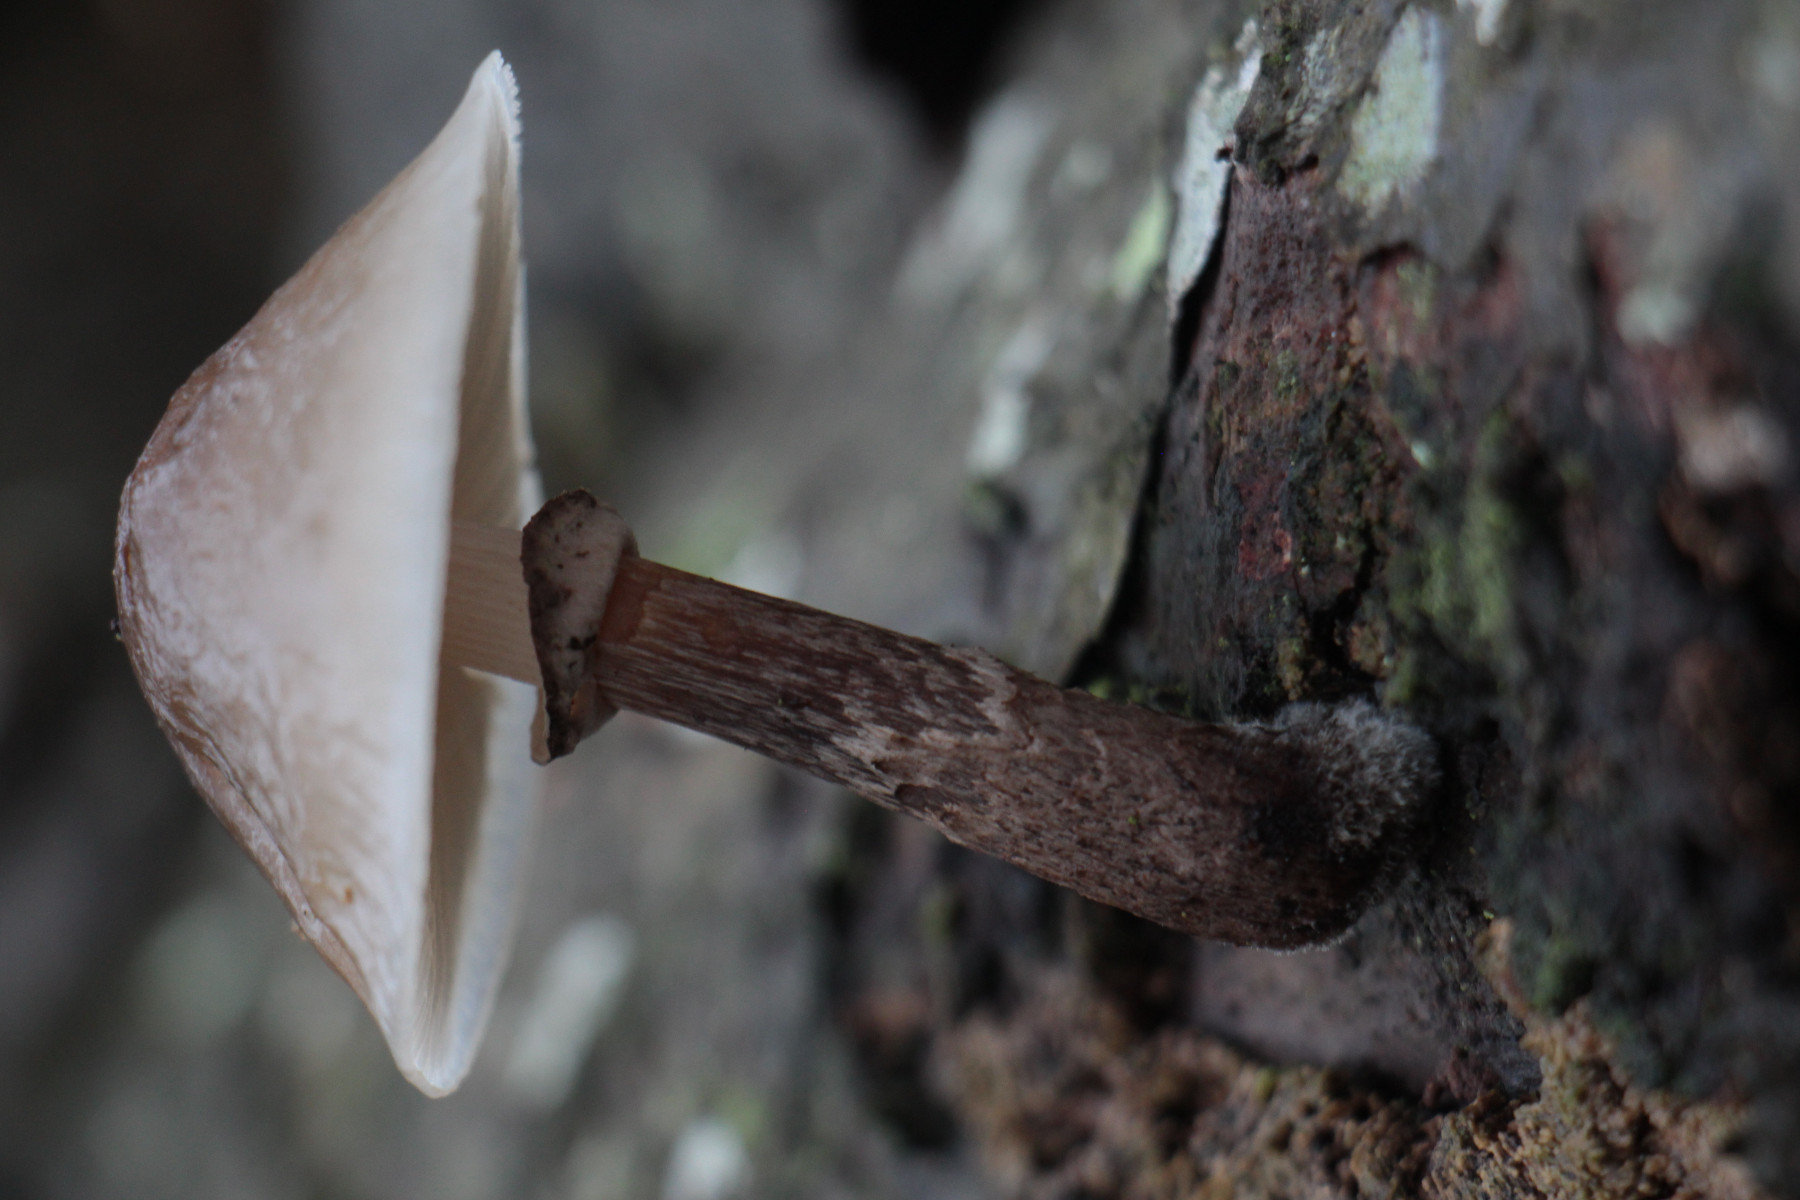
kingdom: Fungi
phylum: Basidiomycota
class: Agaricomycetes
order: Agaricales
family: Physalacriaceae
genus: Mucidula
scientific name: Mucidula mucida
